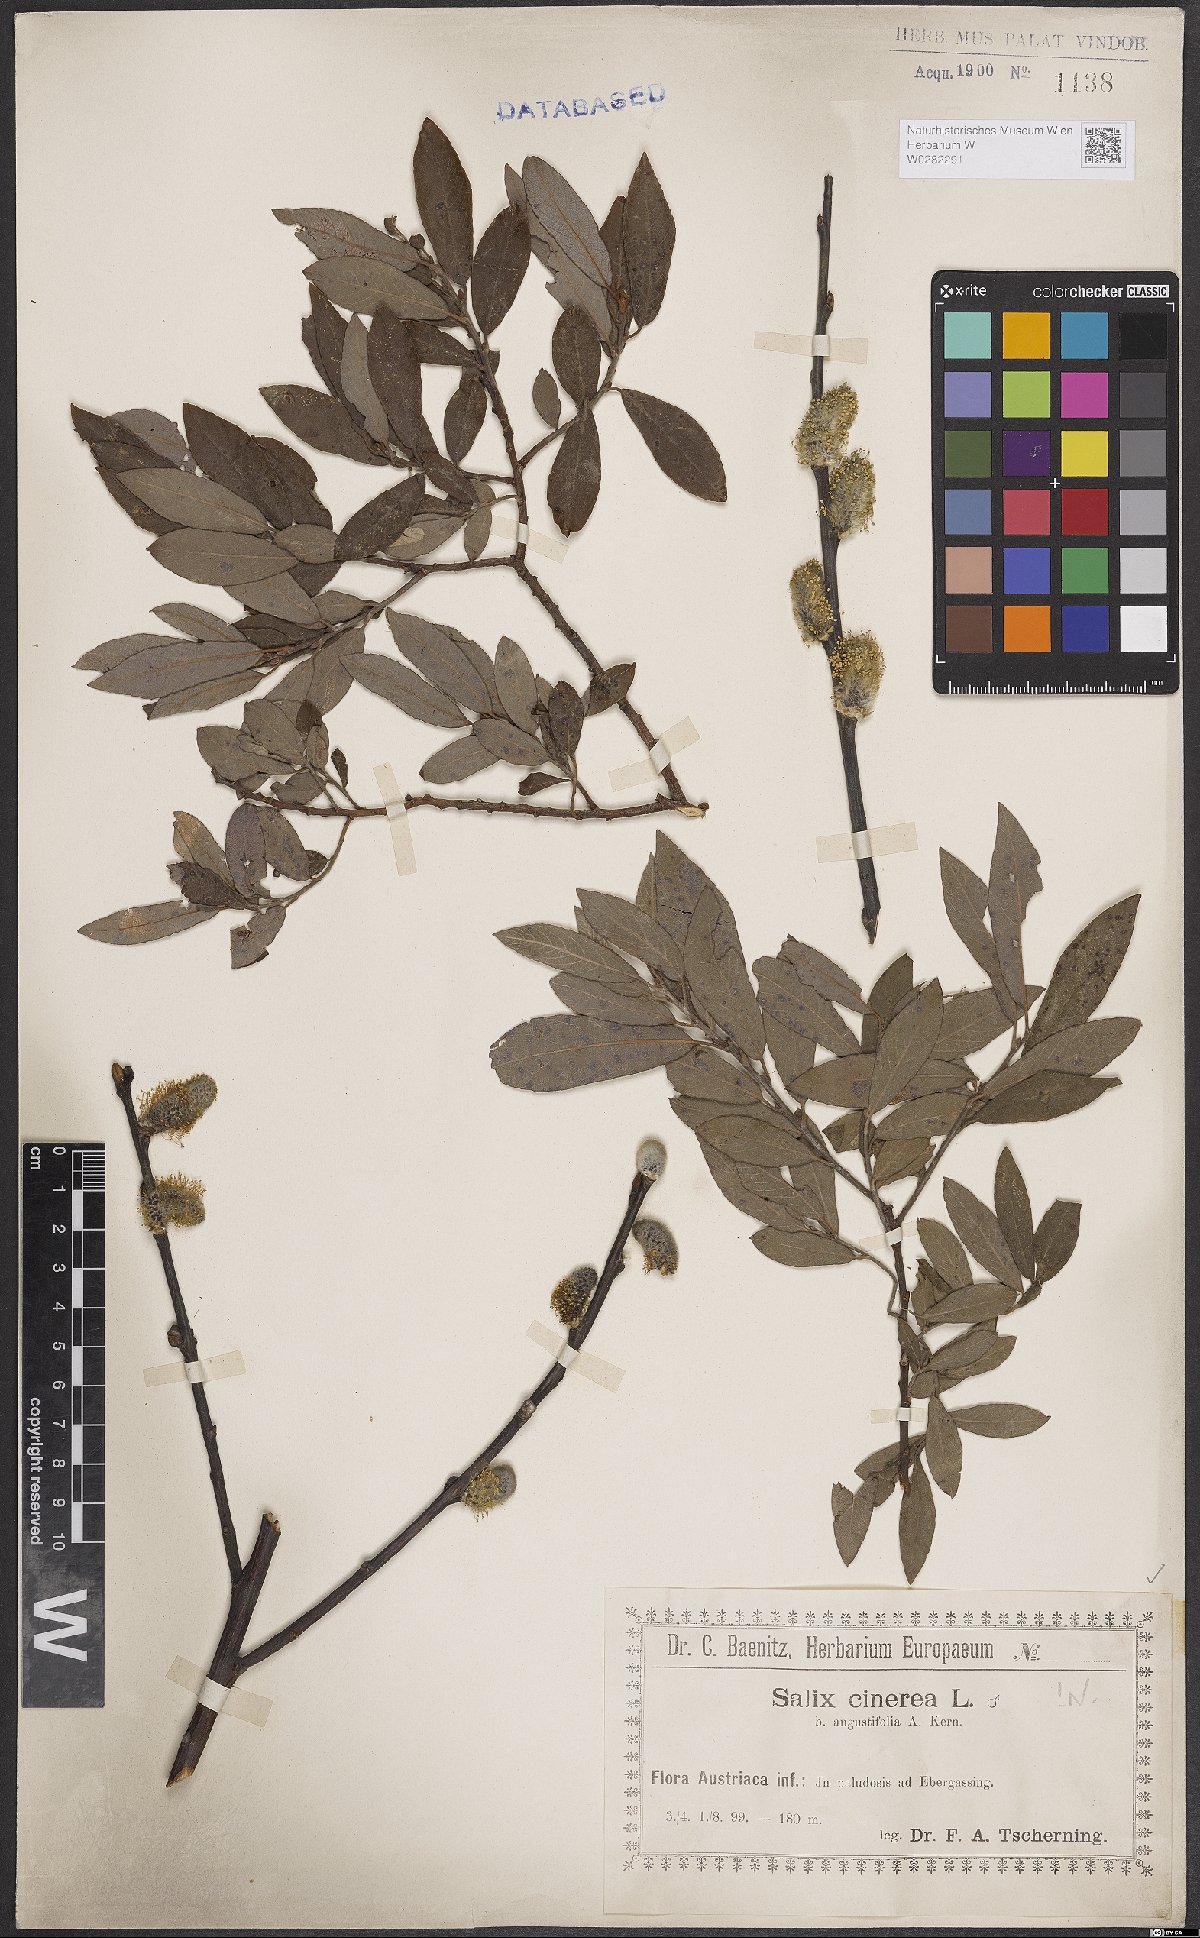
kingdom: Plantae
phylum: Tracheophyta
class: Magnoliopsida
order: Malpighiales
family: Salicaceae
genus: Salix
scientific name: Salix cinerea
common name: Common sallow
